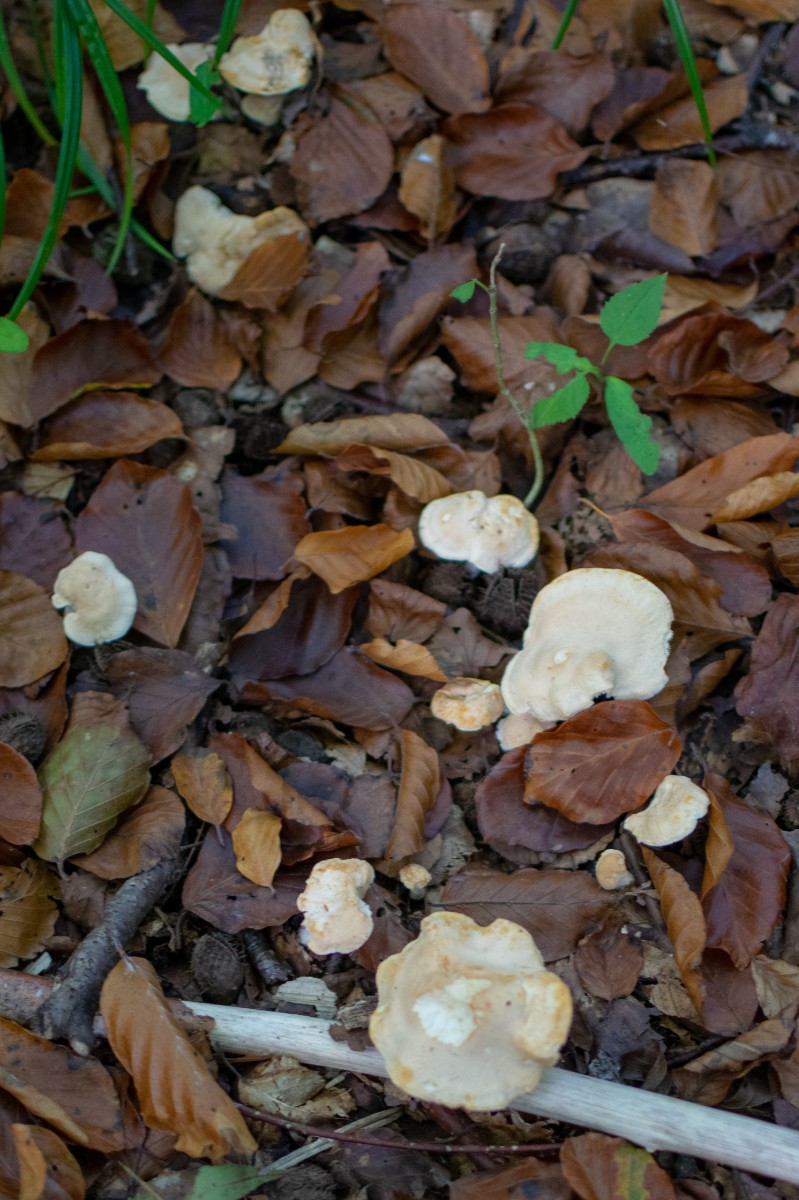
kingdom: Fungi
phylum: Basidiomycota
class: Agaricomycetes
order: Cantharellales
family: Hydnaceae
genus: Hydnum
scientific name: Hydnum
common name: pigsvamp
